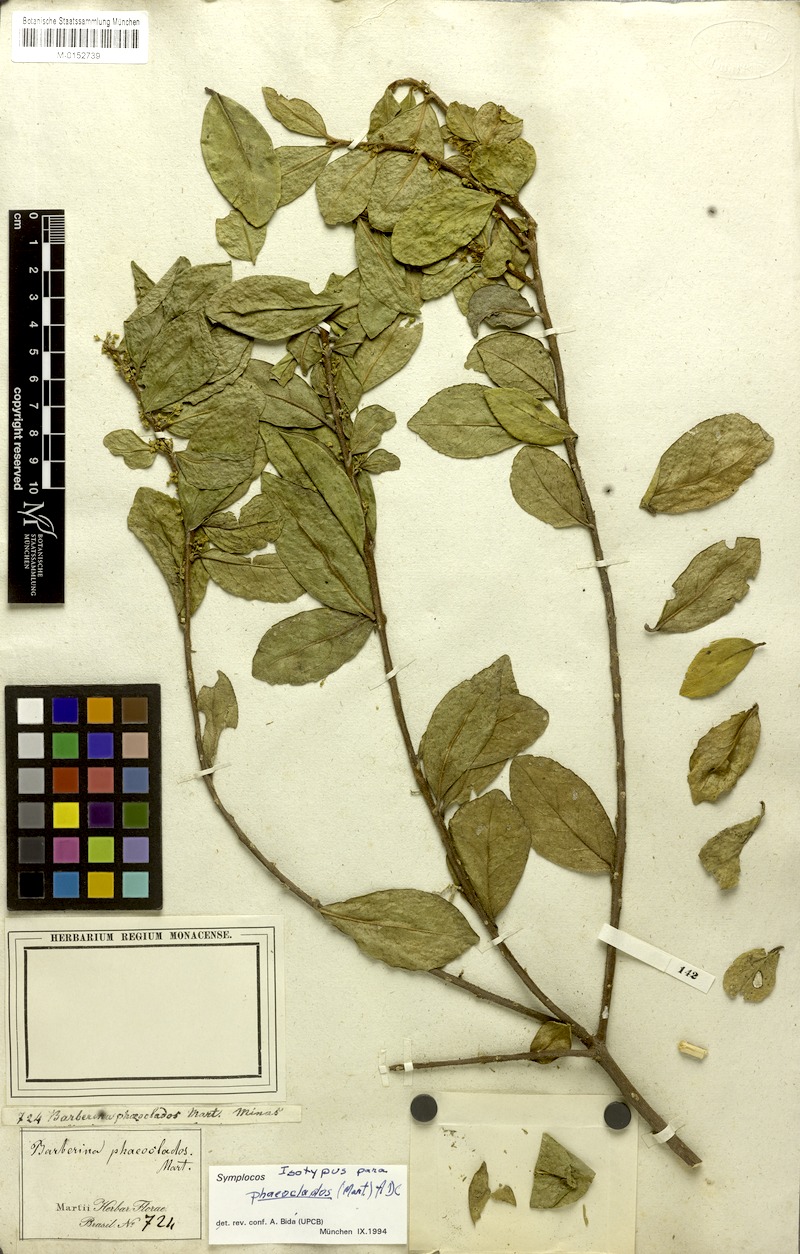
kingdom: Plantae
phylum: Tracheophyta
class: Magnoliopsida
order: Ericales
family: Symplocaceae
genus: Symplocos
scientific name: Symplocos arbutifolia
